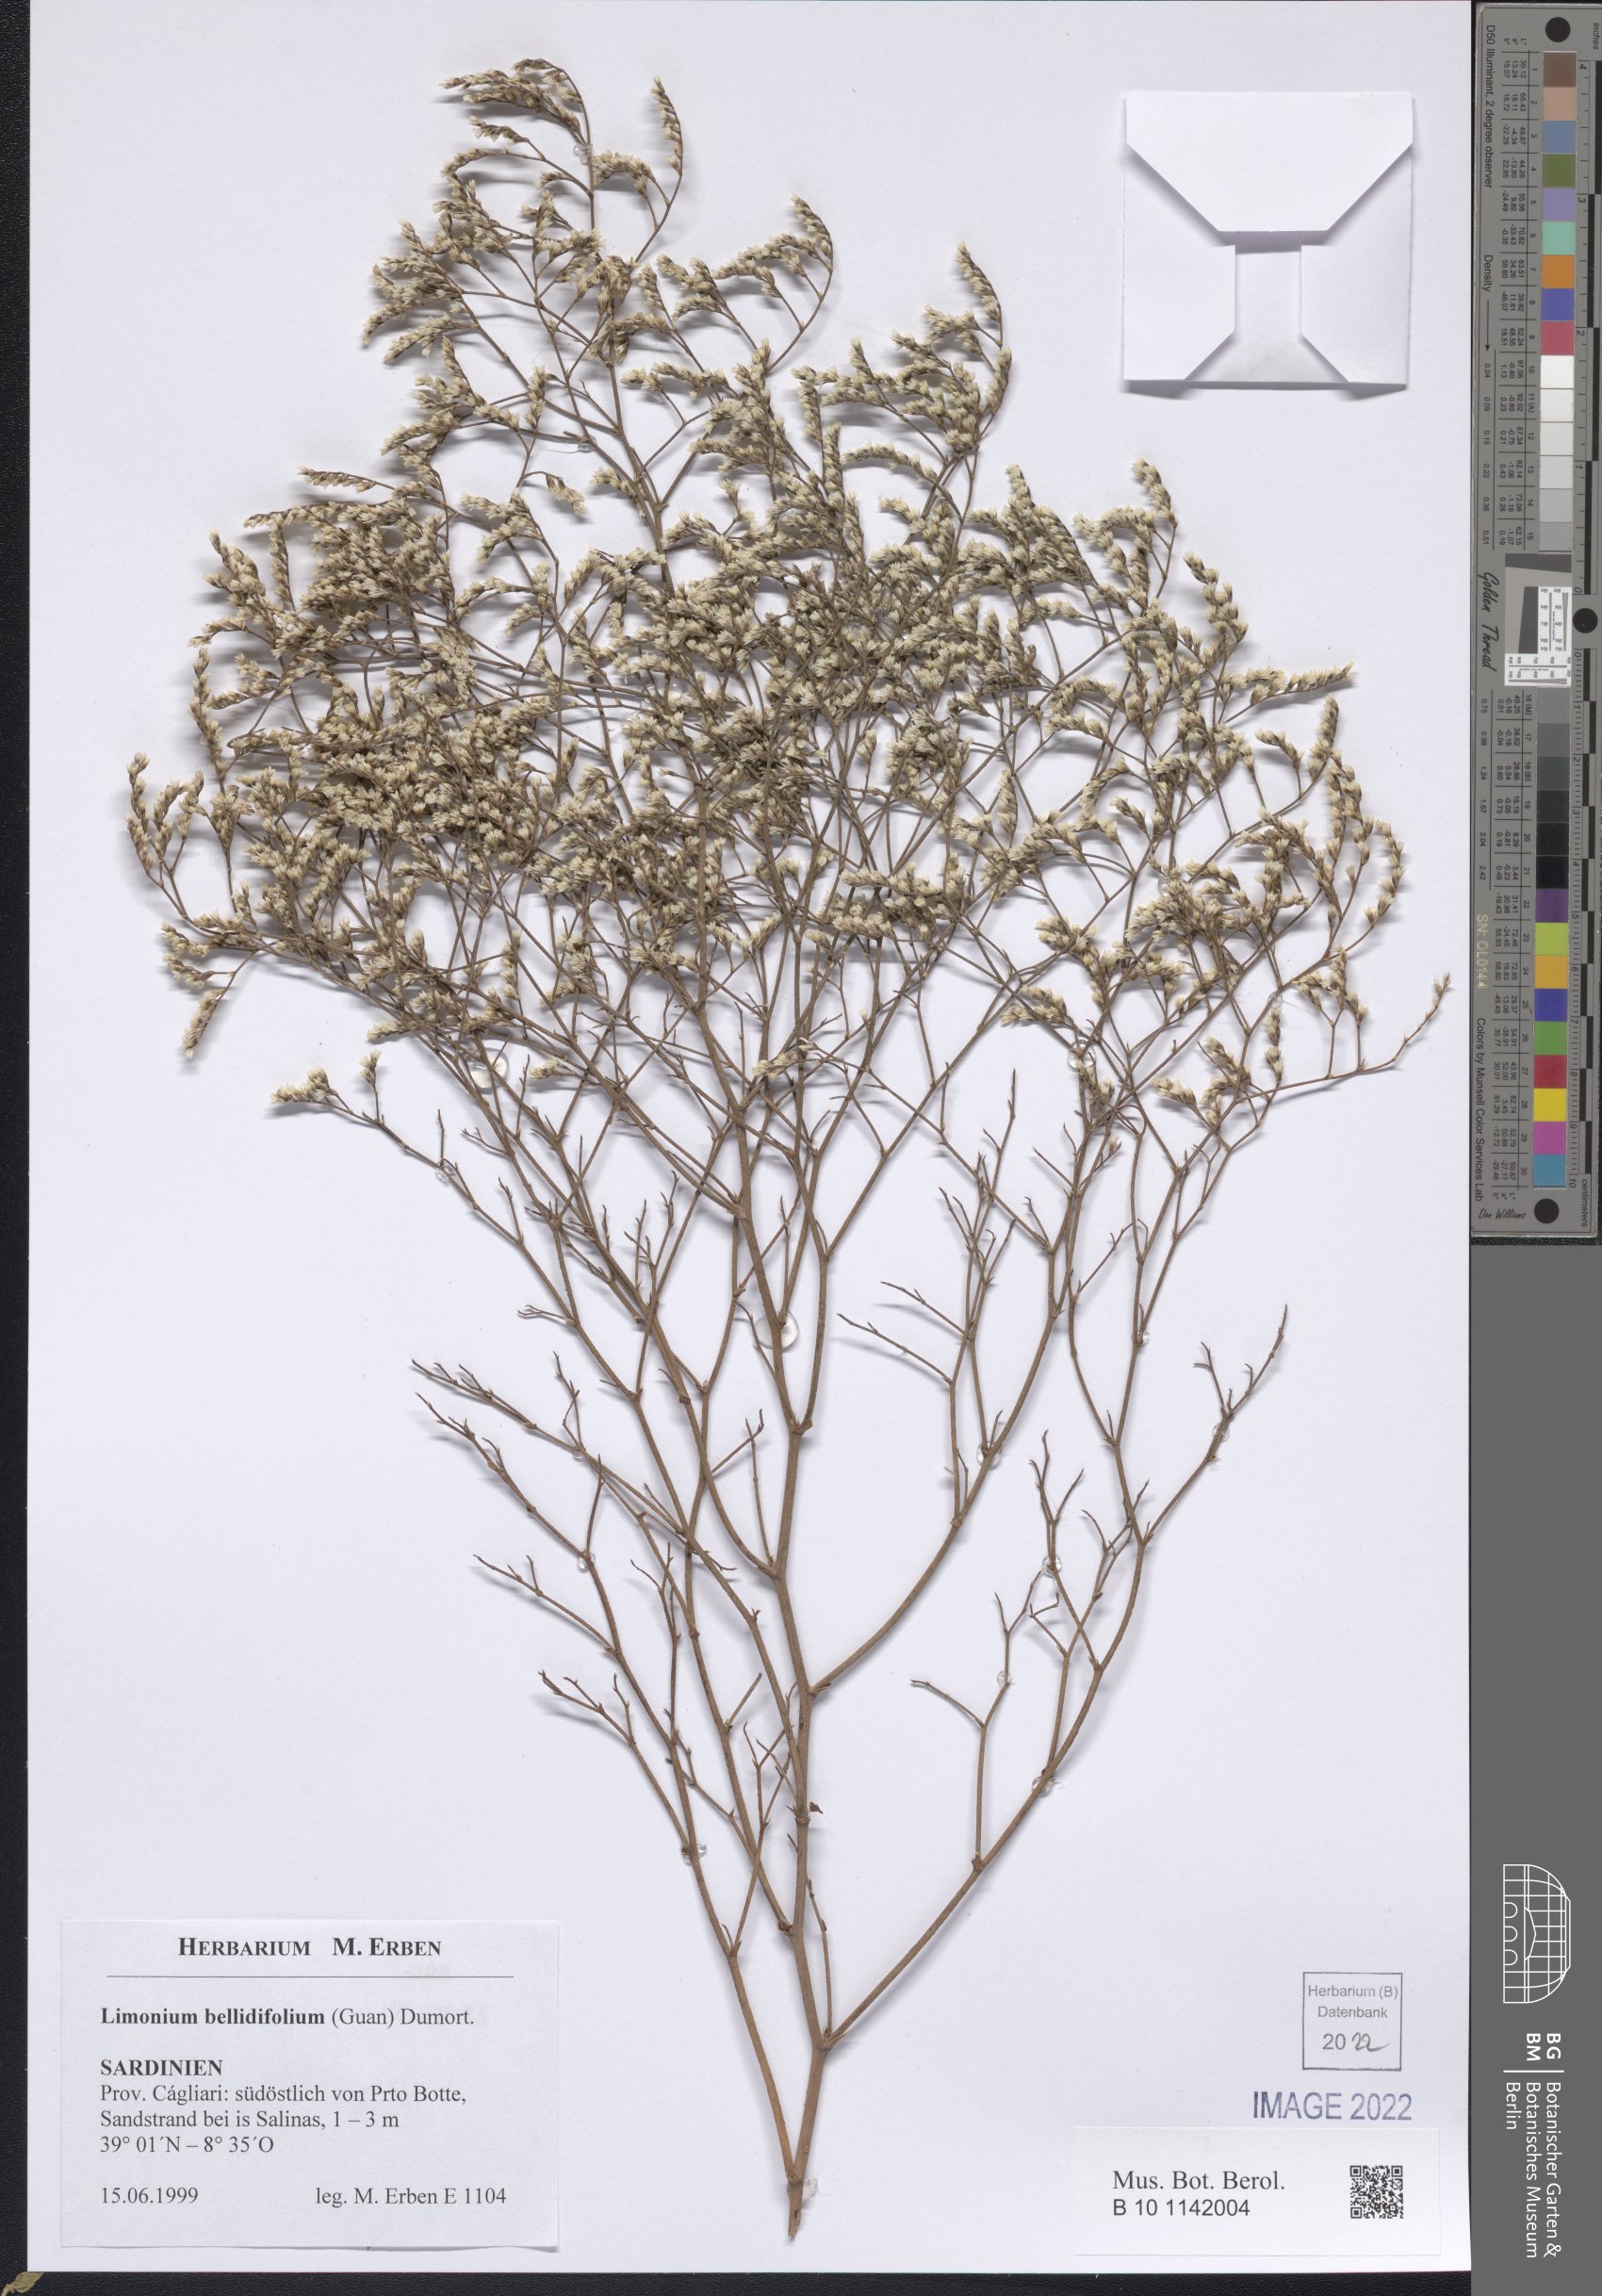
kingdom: Plantae
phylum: Tracheophyta
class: Magnoliopsida
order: Caryophyllales
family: Plumbaginaceae
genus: Limonium
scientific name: Limonium bellidifolium
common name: Matted sea-lavender
